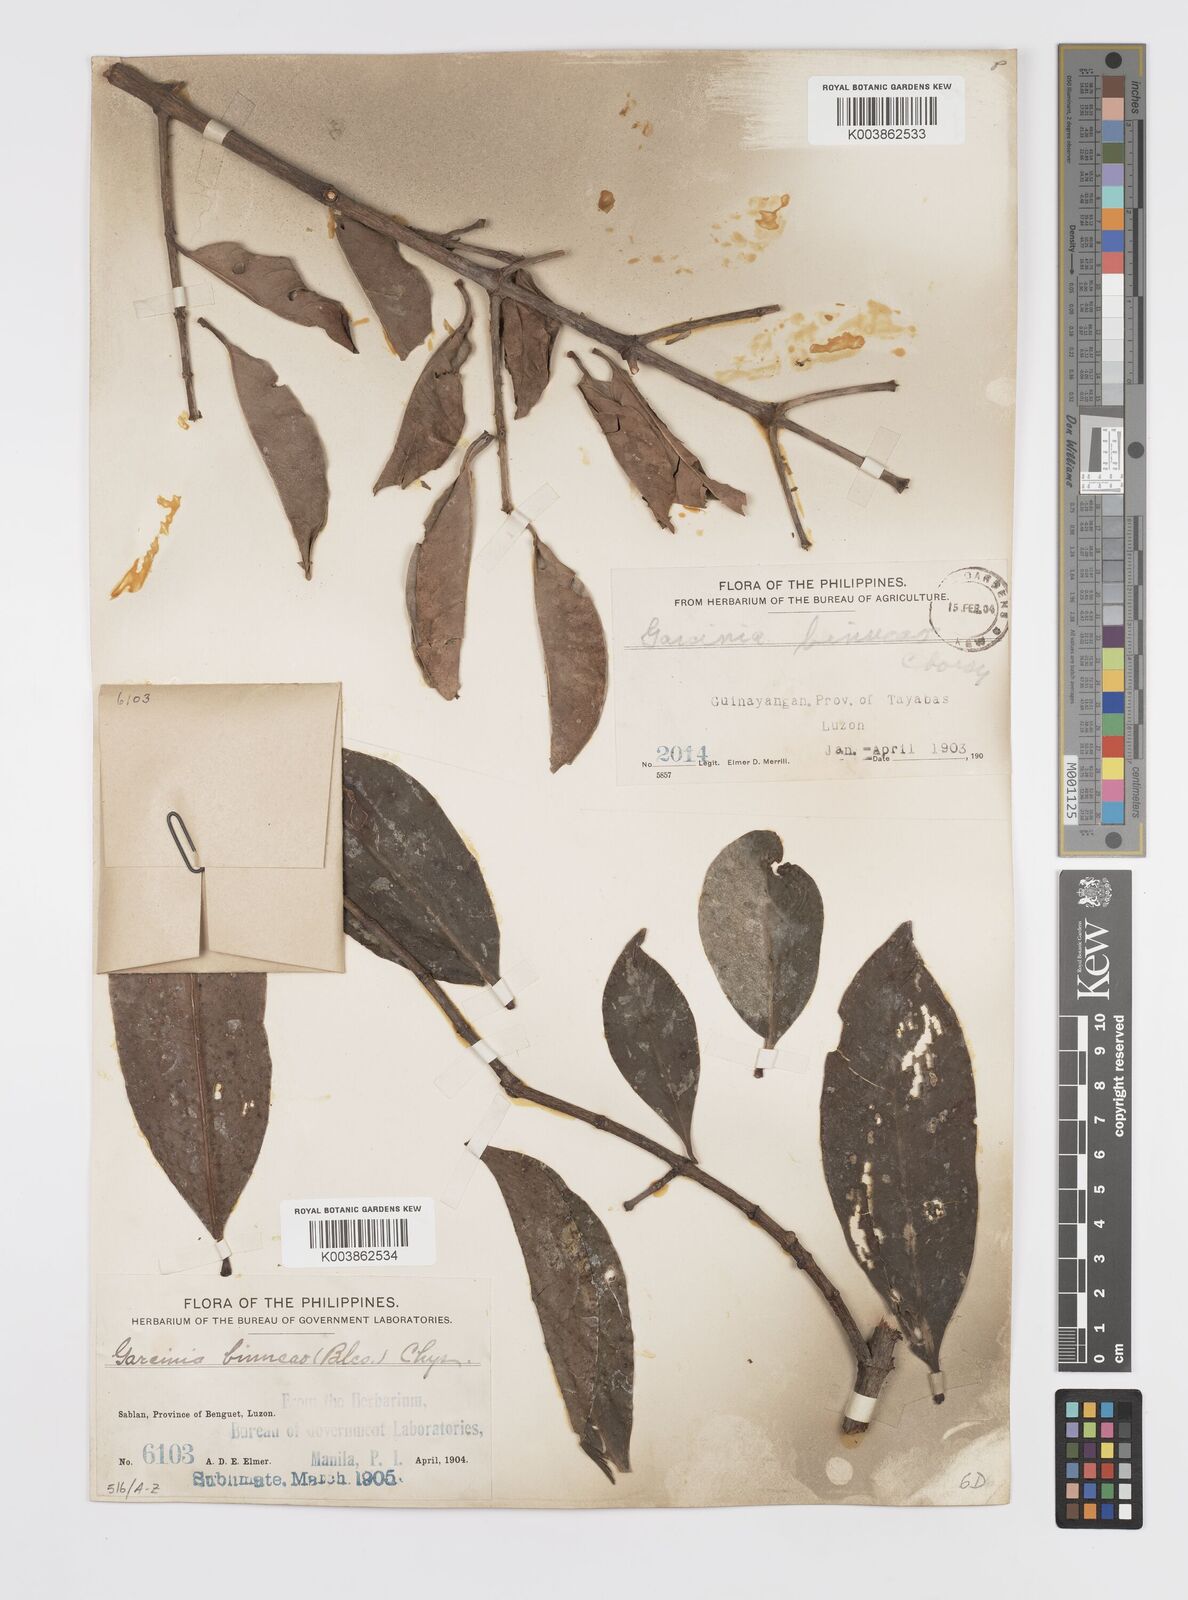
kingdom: Plantae
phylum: Tracheophyta
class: Magnoliopsida
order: Malpighiales
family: Clusiaceae
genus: Garcinia
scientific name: Garcinia binucao
